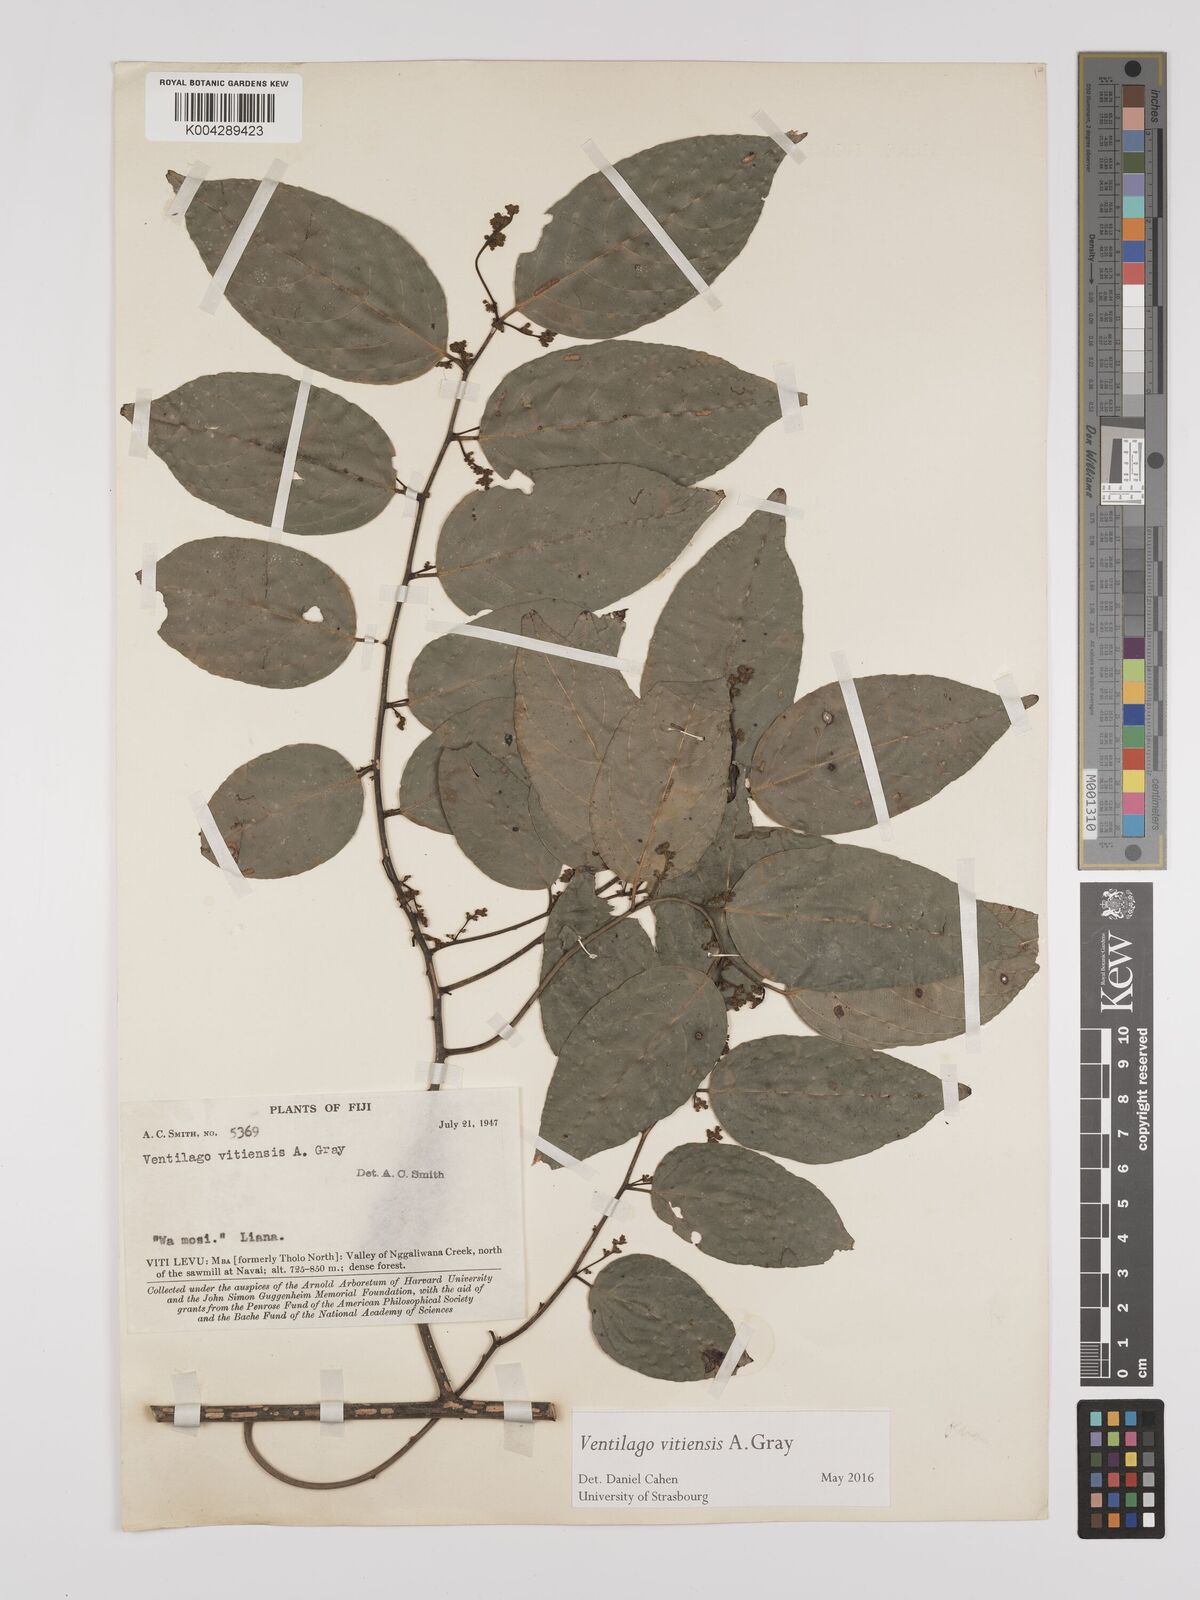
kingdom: Plantae
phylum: Tracheophyta
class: Magnoliopsida
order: Rosales
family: Rhamnaceae
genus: Ventilago
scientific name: Ventilago vitiensis
